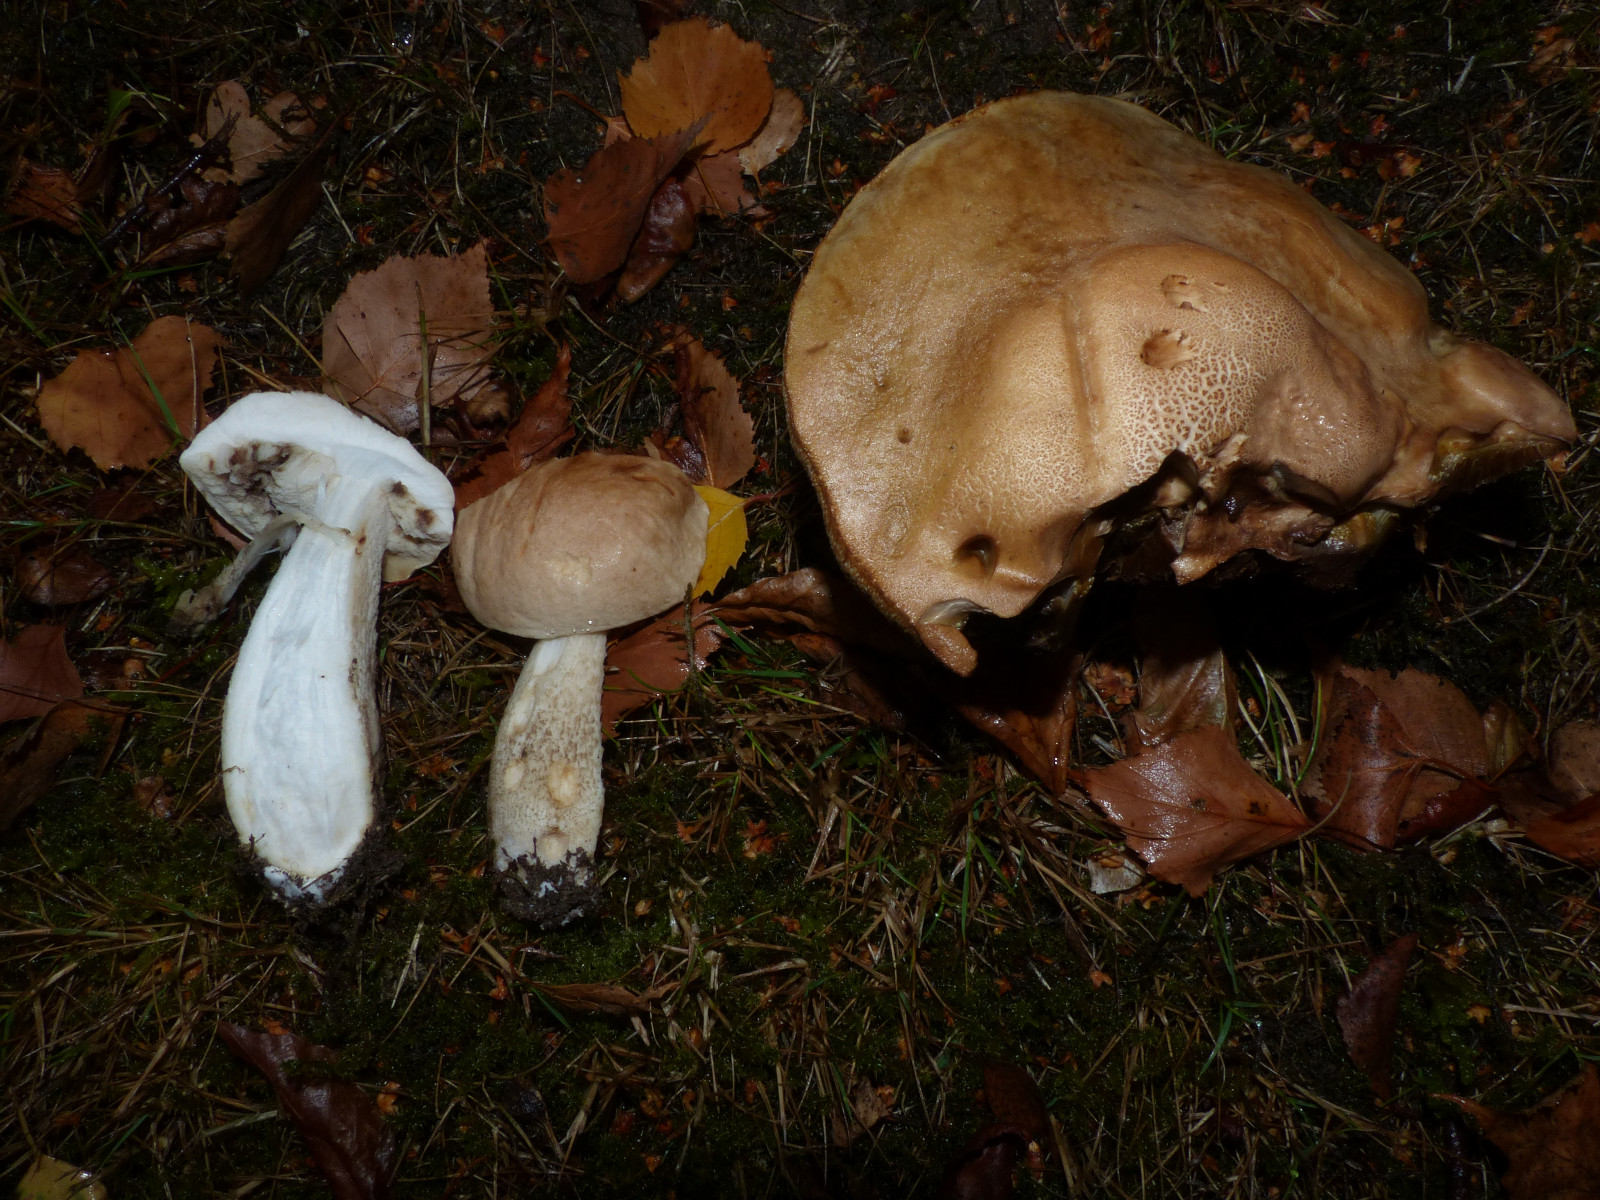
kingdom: Fungi
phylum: Basidiomycota
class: Agaricomycetes
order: Boletales
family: Boletaceae
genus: Leccinum
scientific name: Leccinum scabrum
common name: brun skælrørhat
